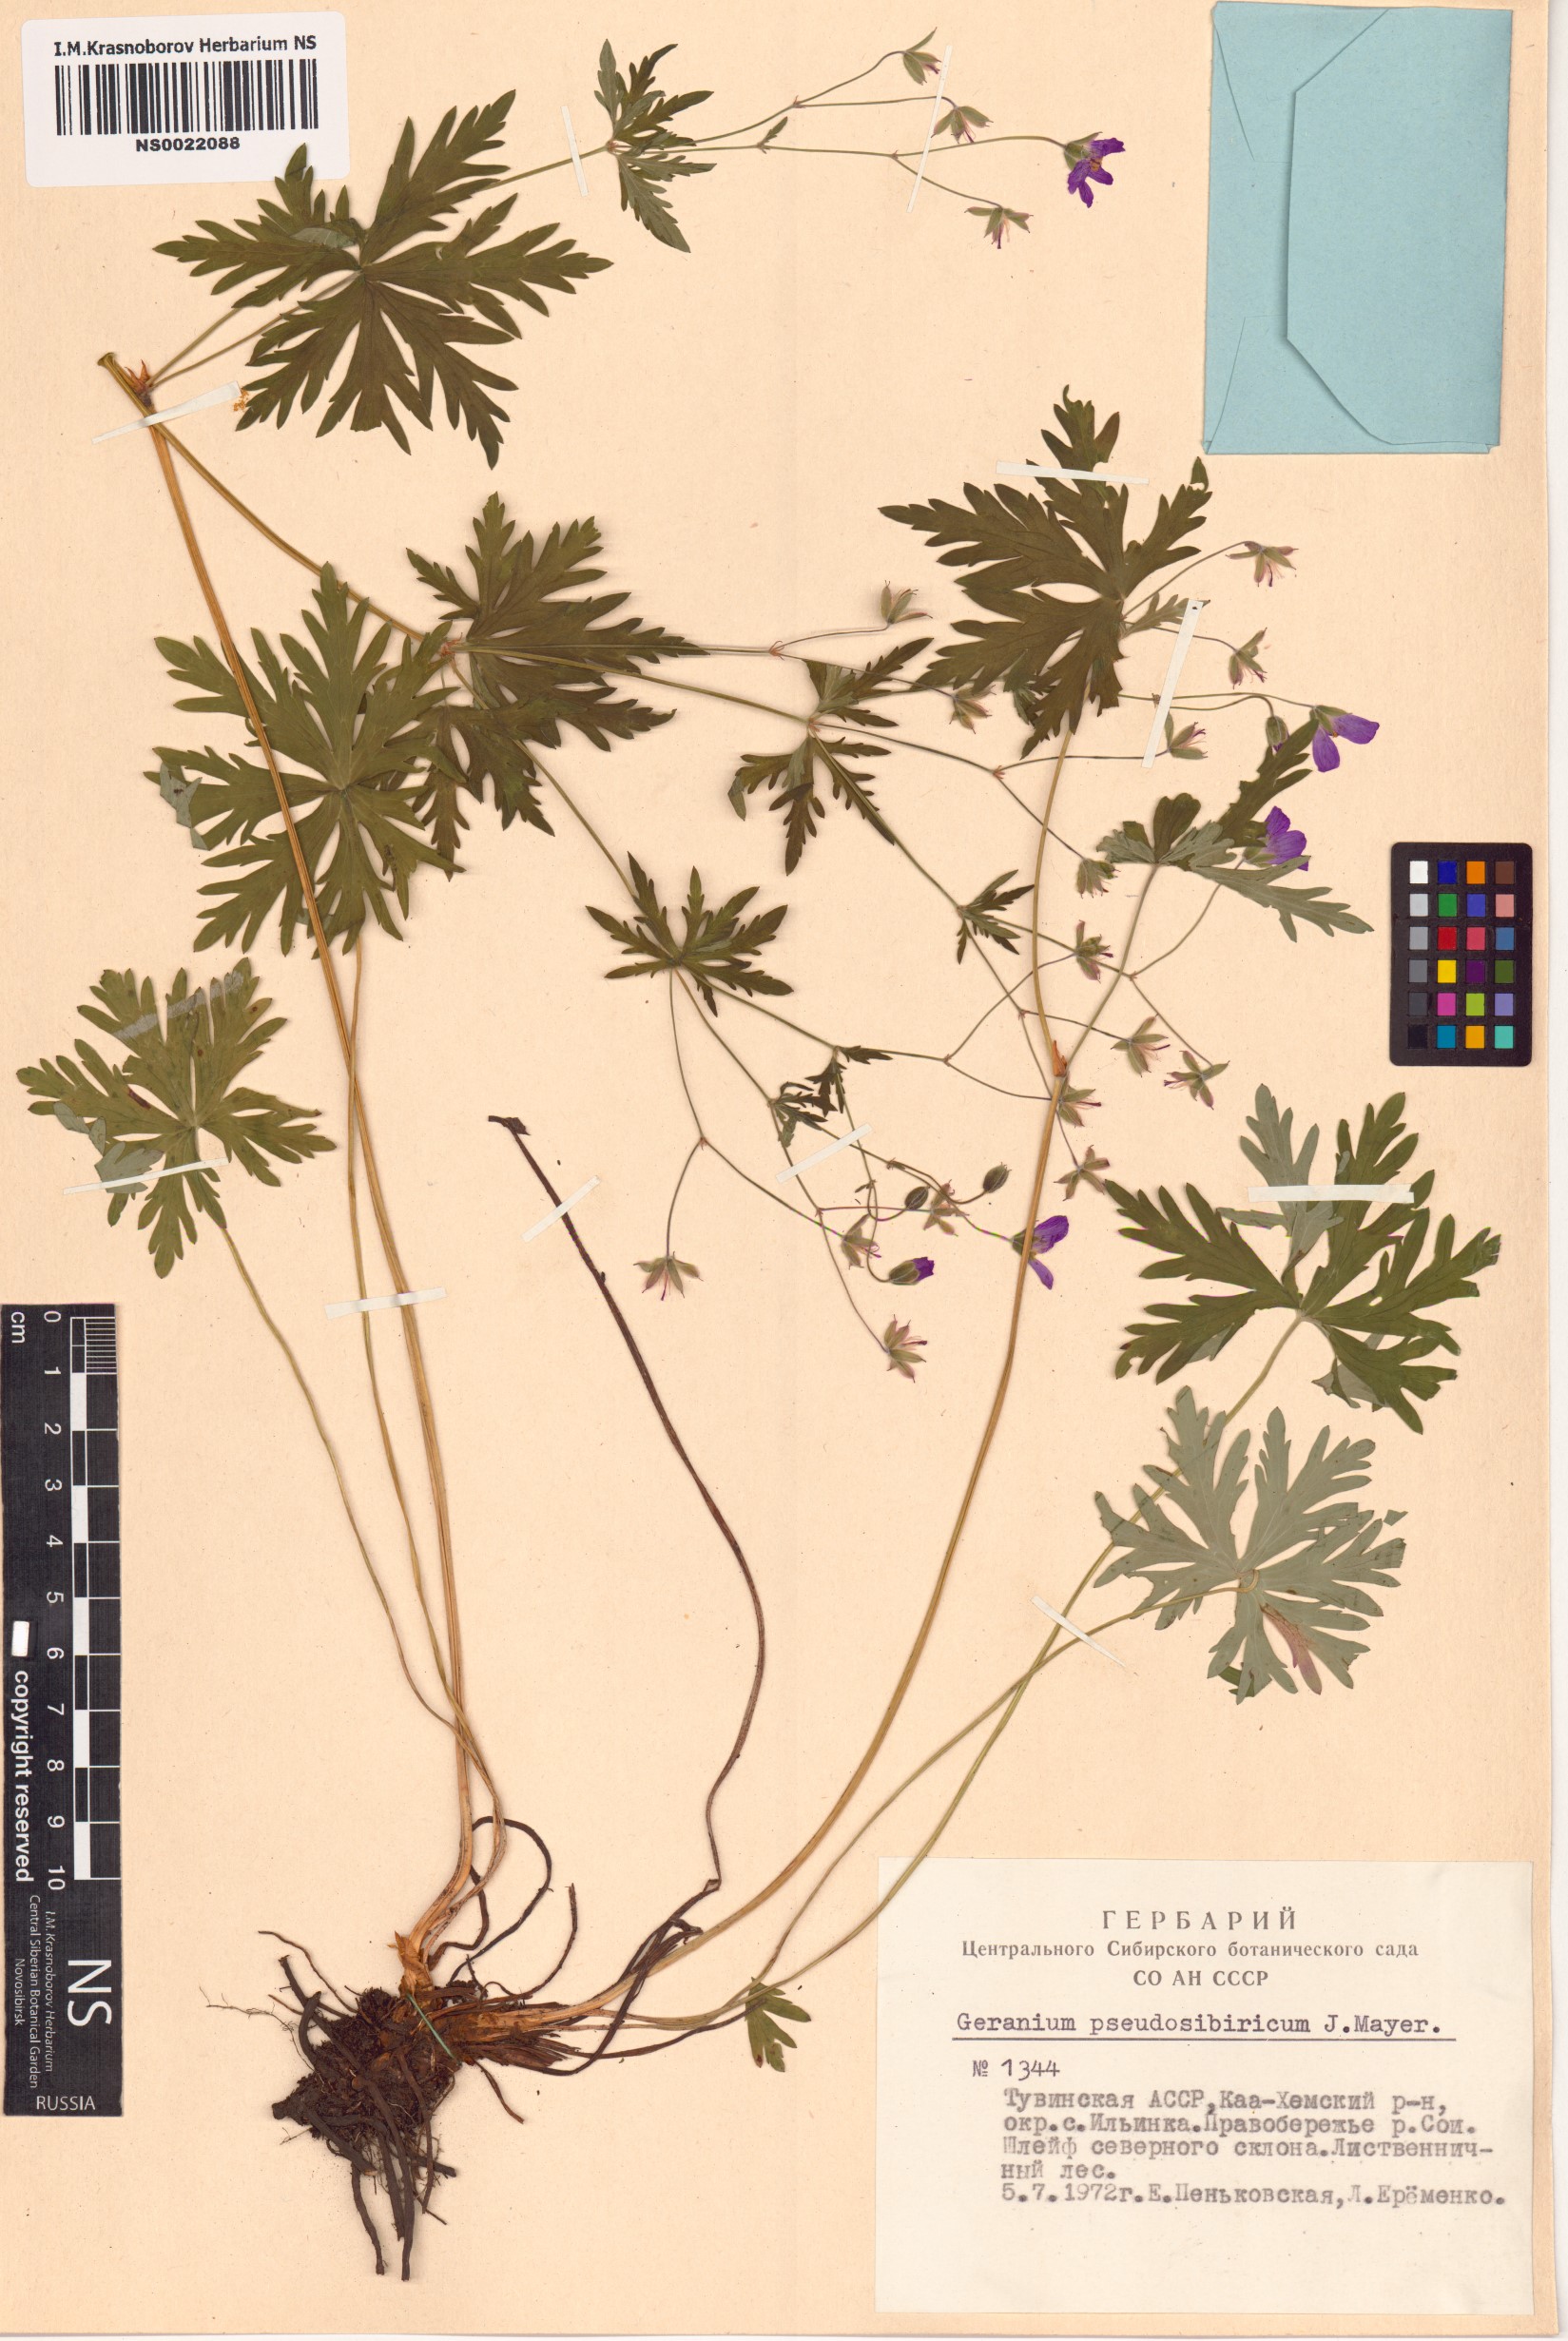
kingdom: Plantae
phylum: Tracheophyta
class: Magnoliopsida
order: Geraniales
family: Geraniaceae
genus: Geranium
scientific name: Geranium pseudosibiricum
